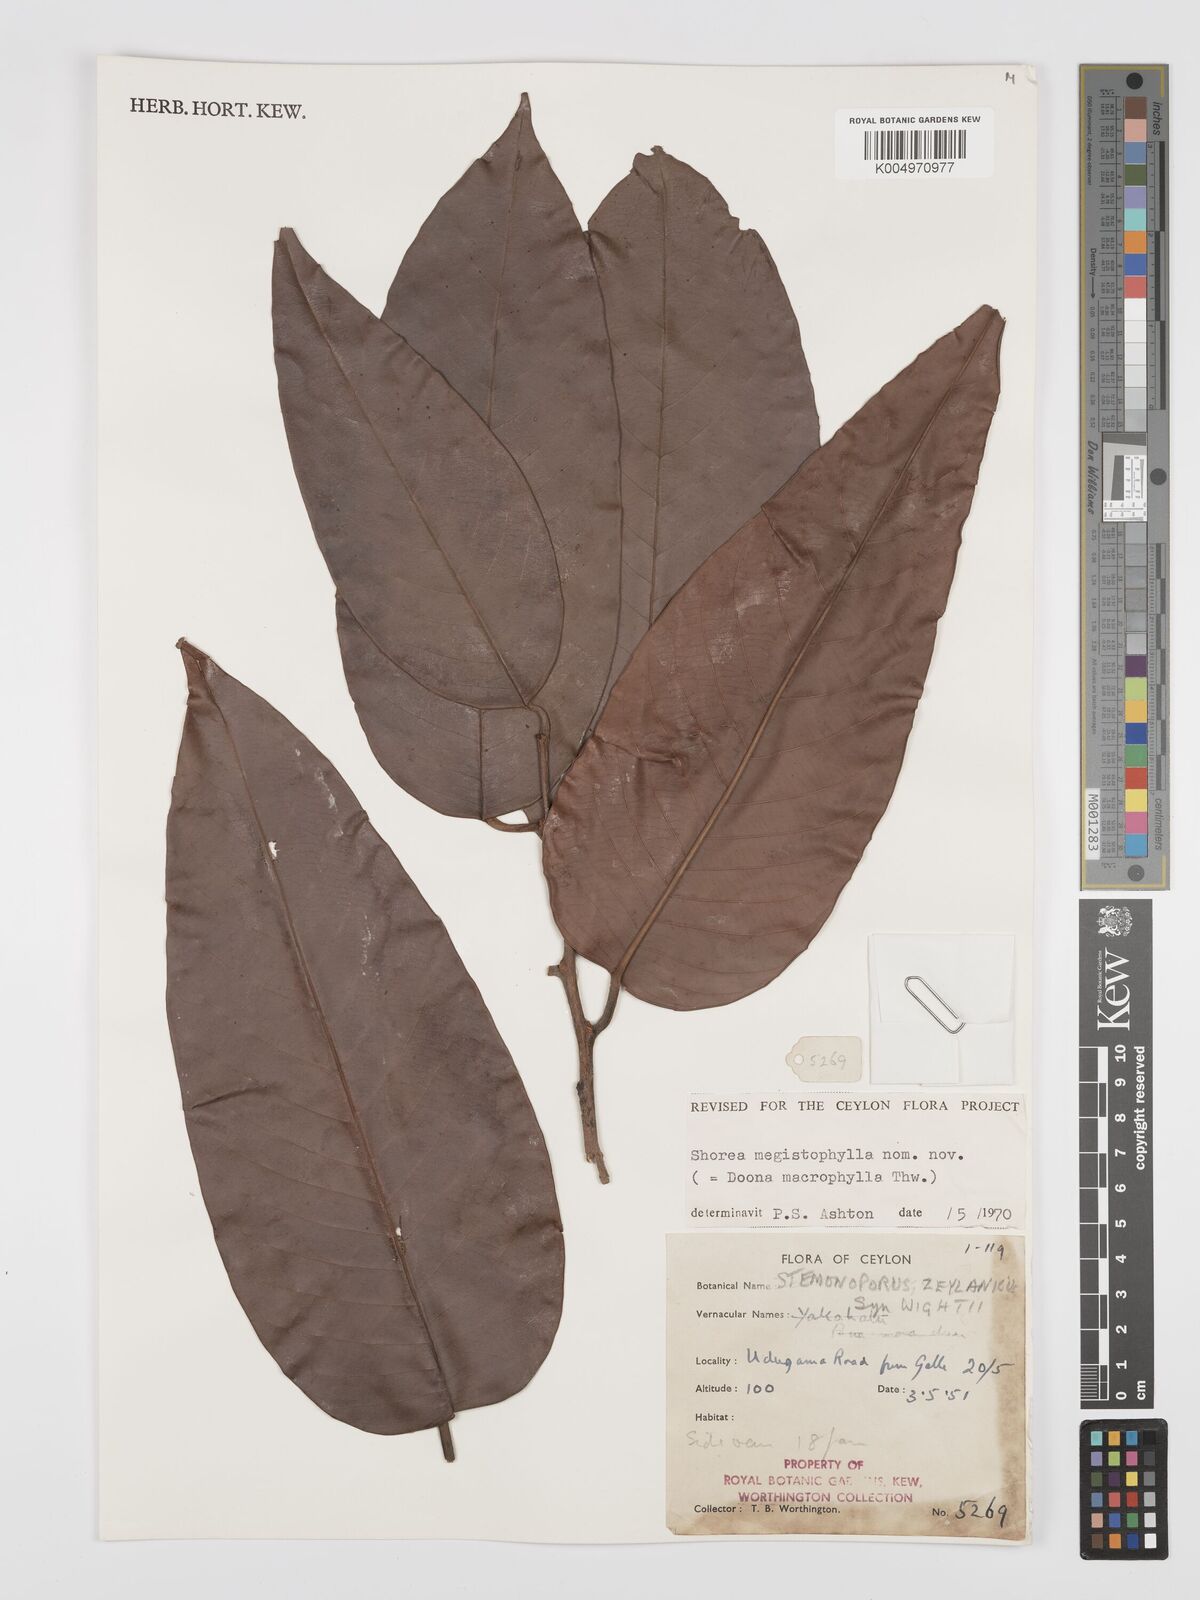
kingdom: Plantae
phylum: Tracheophyta
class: Magnoliopsida
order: Malvales
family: Dipterocarpaceae
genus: Doona
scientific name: Doona macrophylla
